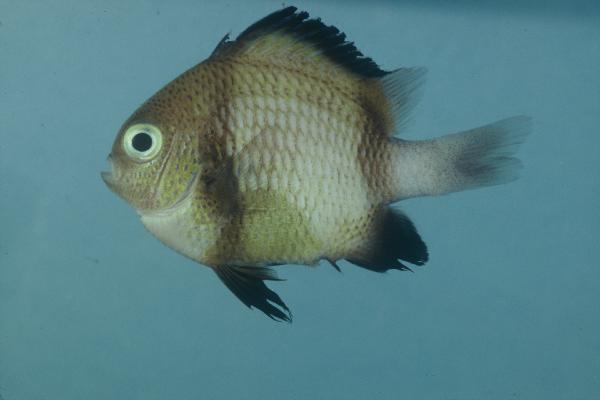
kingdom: Animalia
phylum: Chordata
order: Perciformes
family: Pomacentridae
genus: Dascyllus
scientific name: Dascyllus carneus
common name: Indian dascyllus
